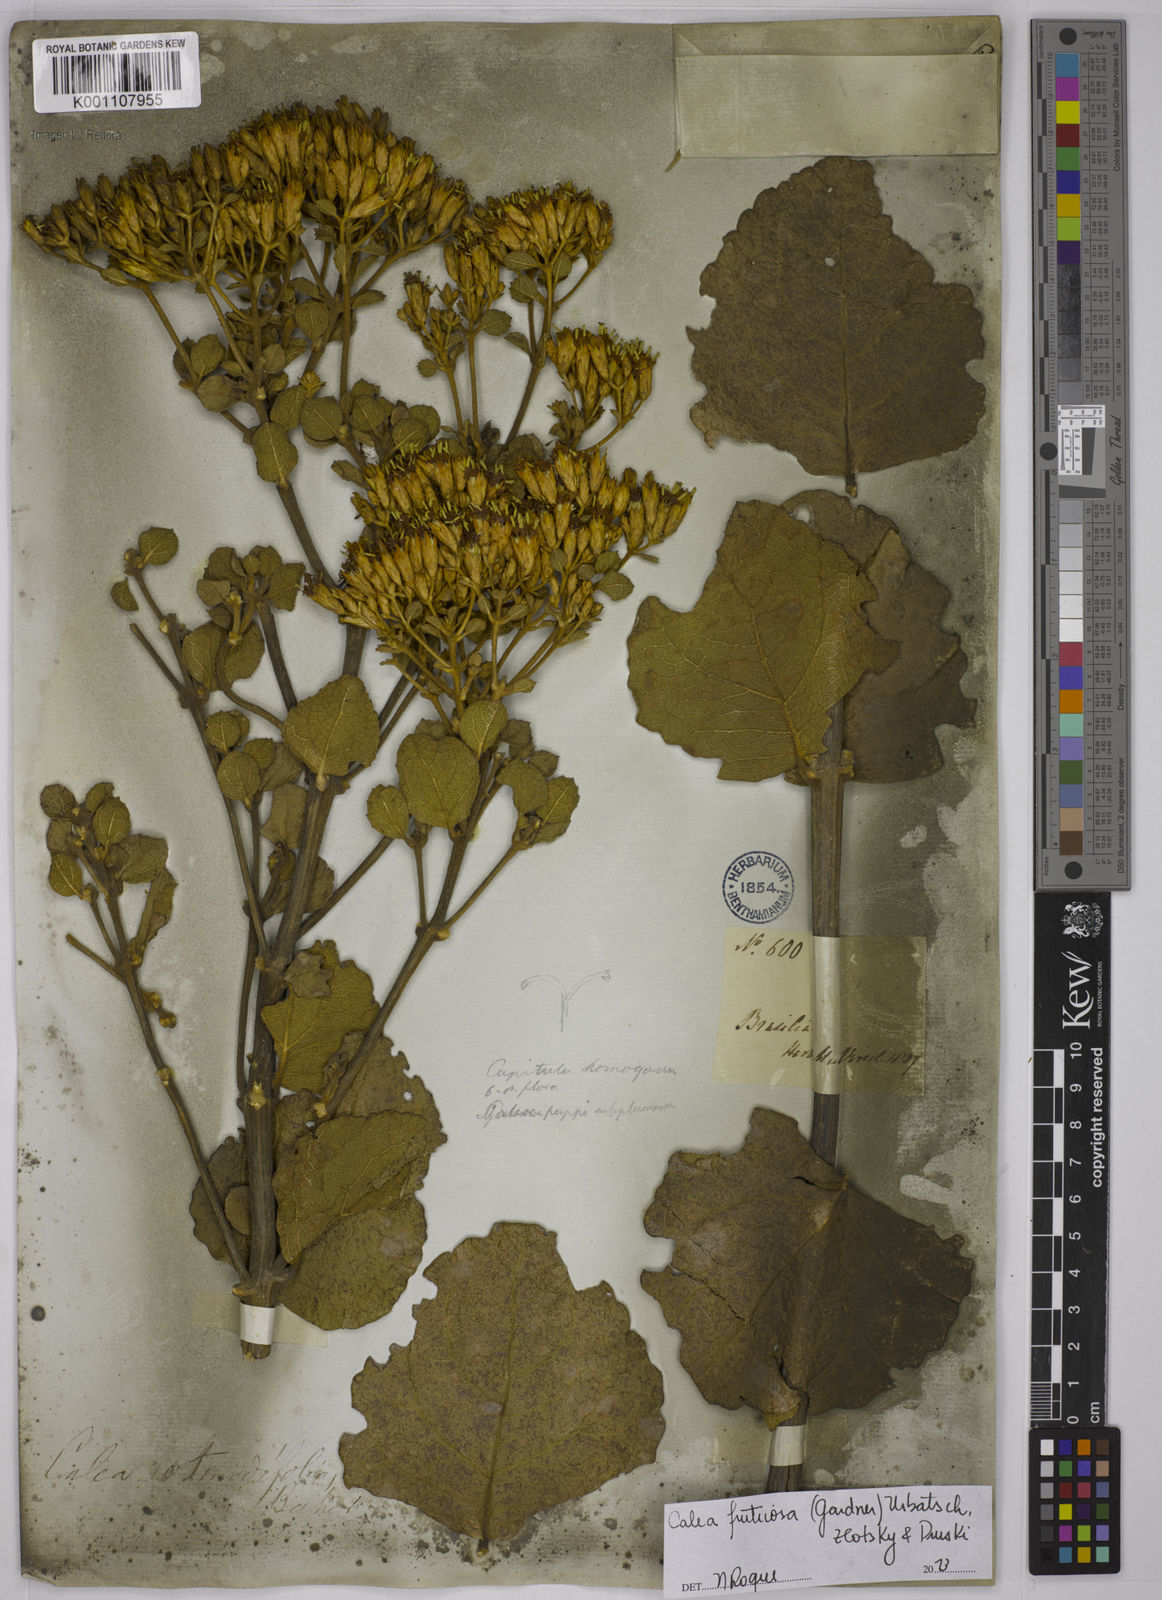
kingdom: Plantae
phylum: Tracheophyta
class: Magnoliopsida
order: Asterales
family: Asteraceae
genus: Calea
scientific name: Calea fruticosa
